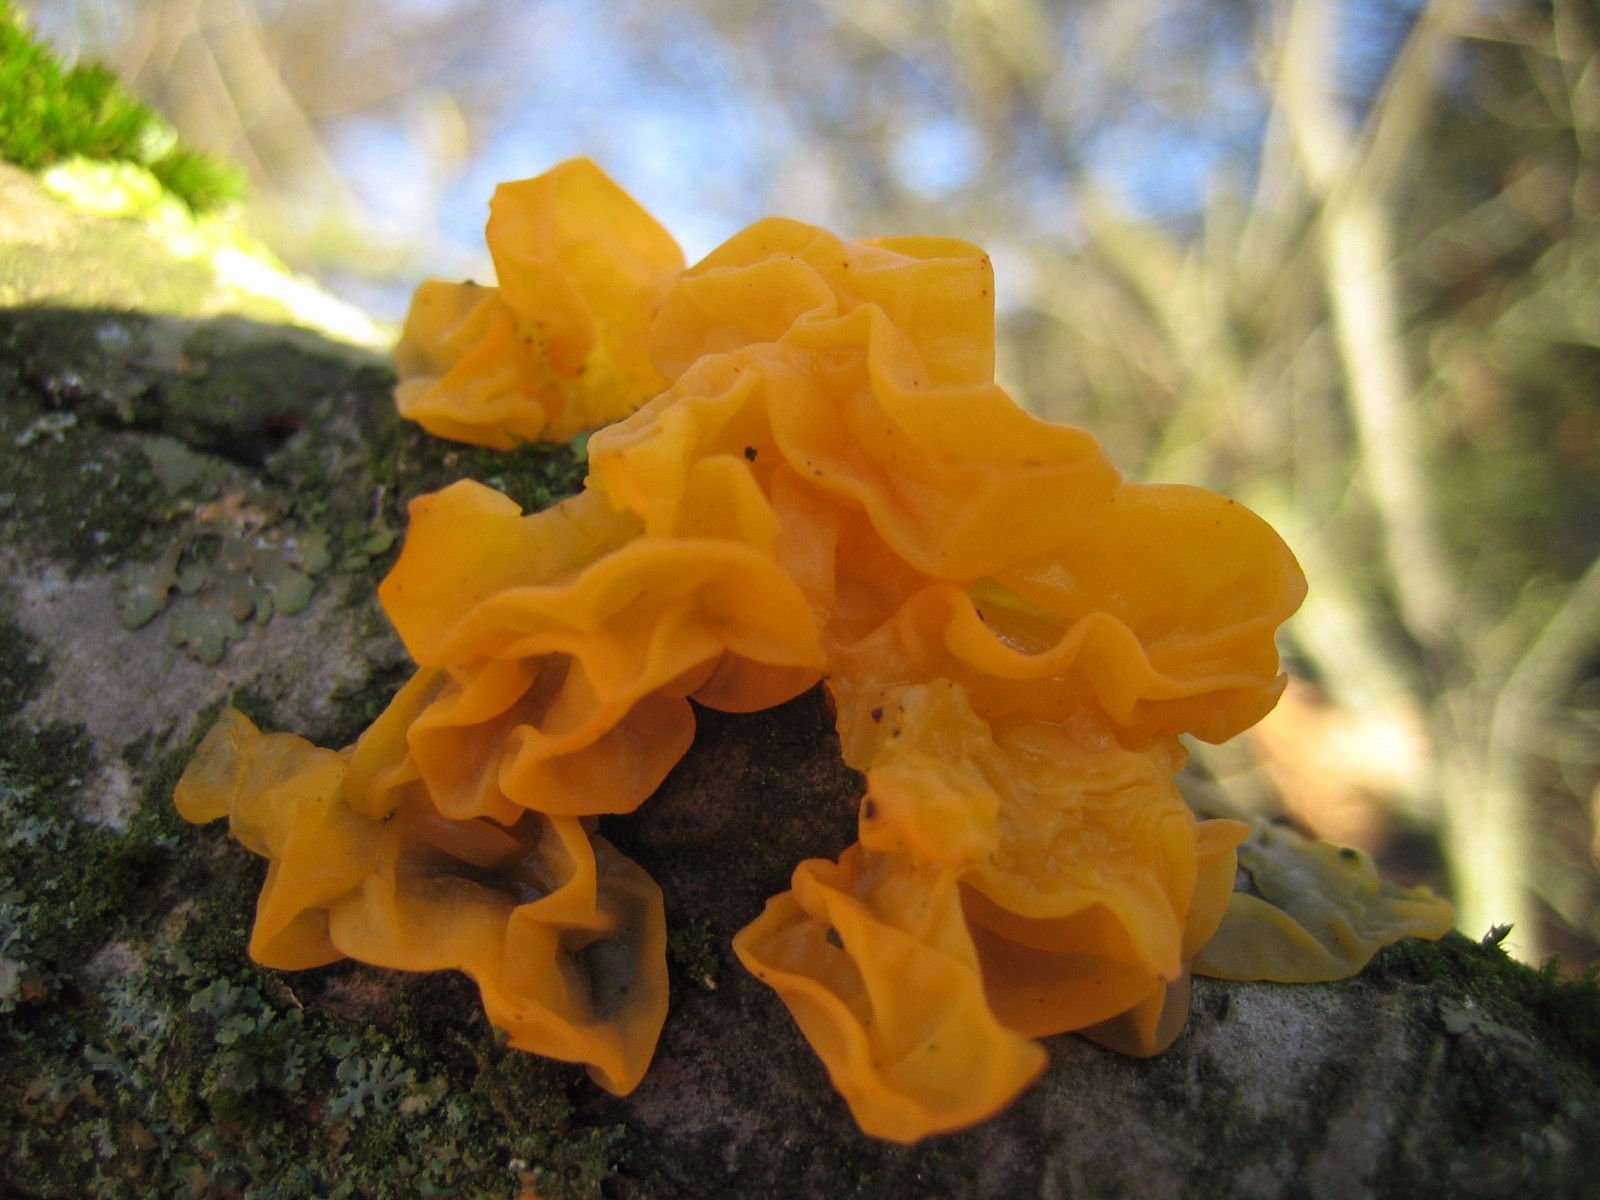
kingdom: Fungi
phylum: Basidiomycota
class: Tremellomycetes
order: Tremellales
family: Tremellaceae
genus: Tremella
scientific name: Tremella mesenterica
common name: gul bævresvamp
